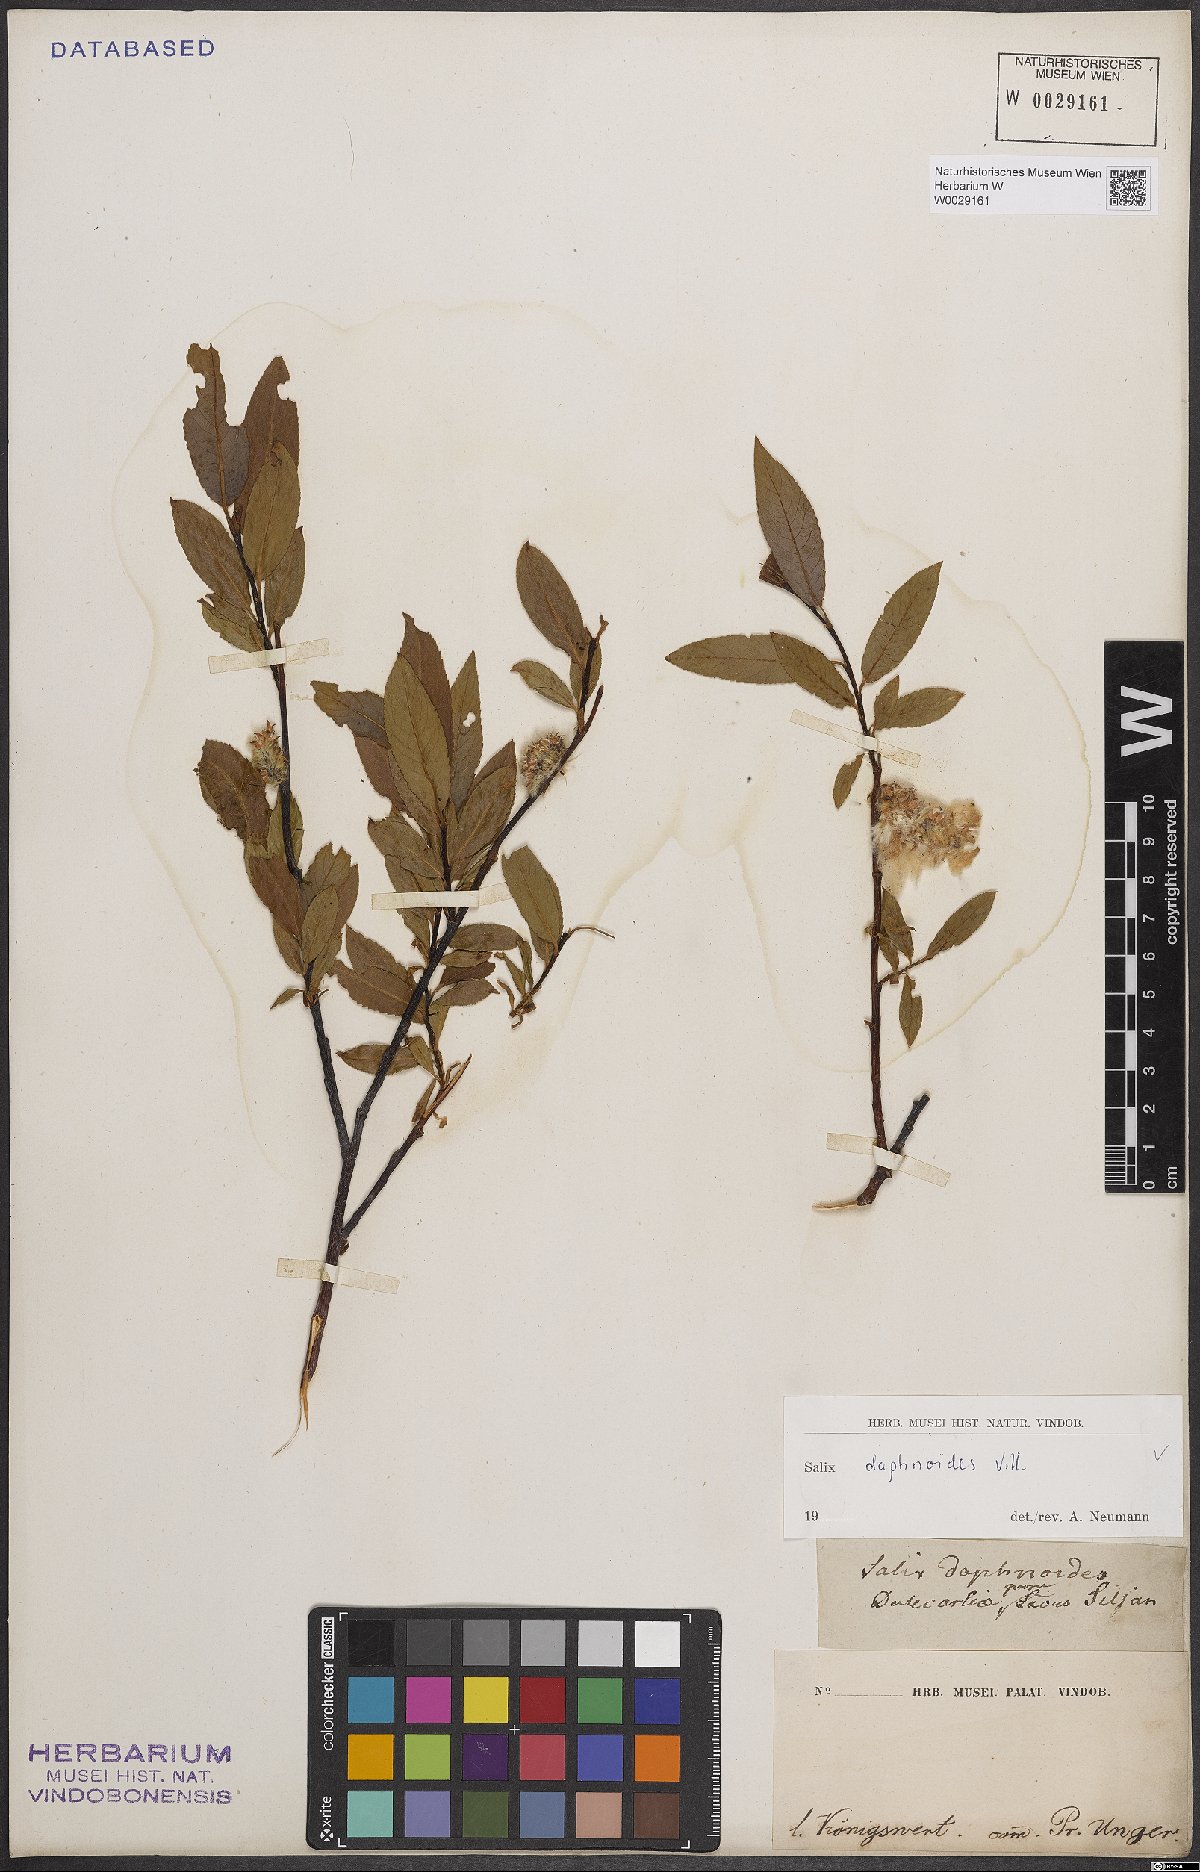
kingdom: Plantae
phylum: Tracheophyta
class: Magnoliopsida
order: Malpighiales
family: Salicaceae
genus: Salix
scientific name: Salix daphnoides
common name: European violet-willow
